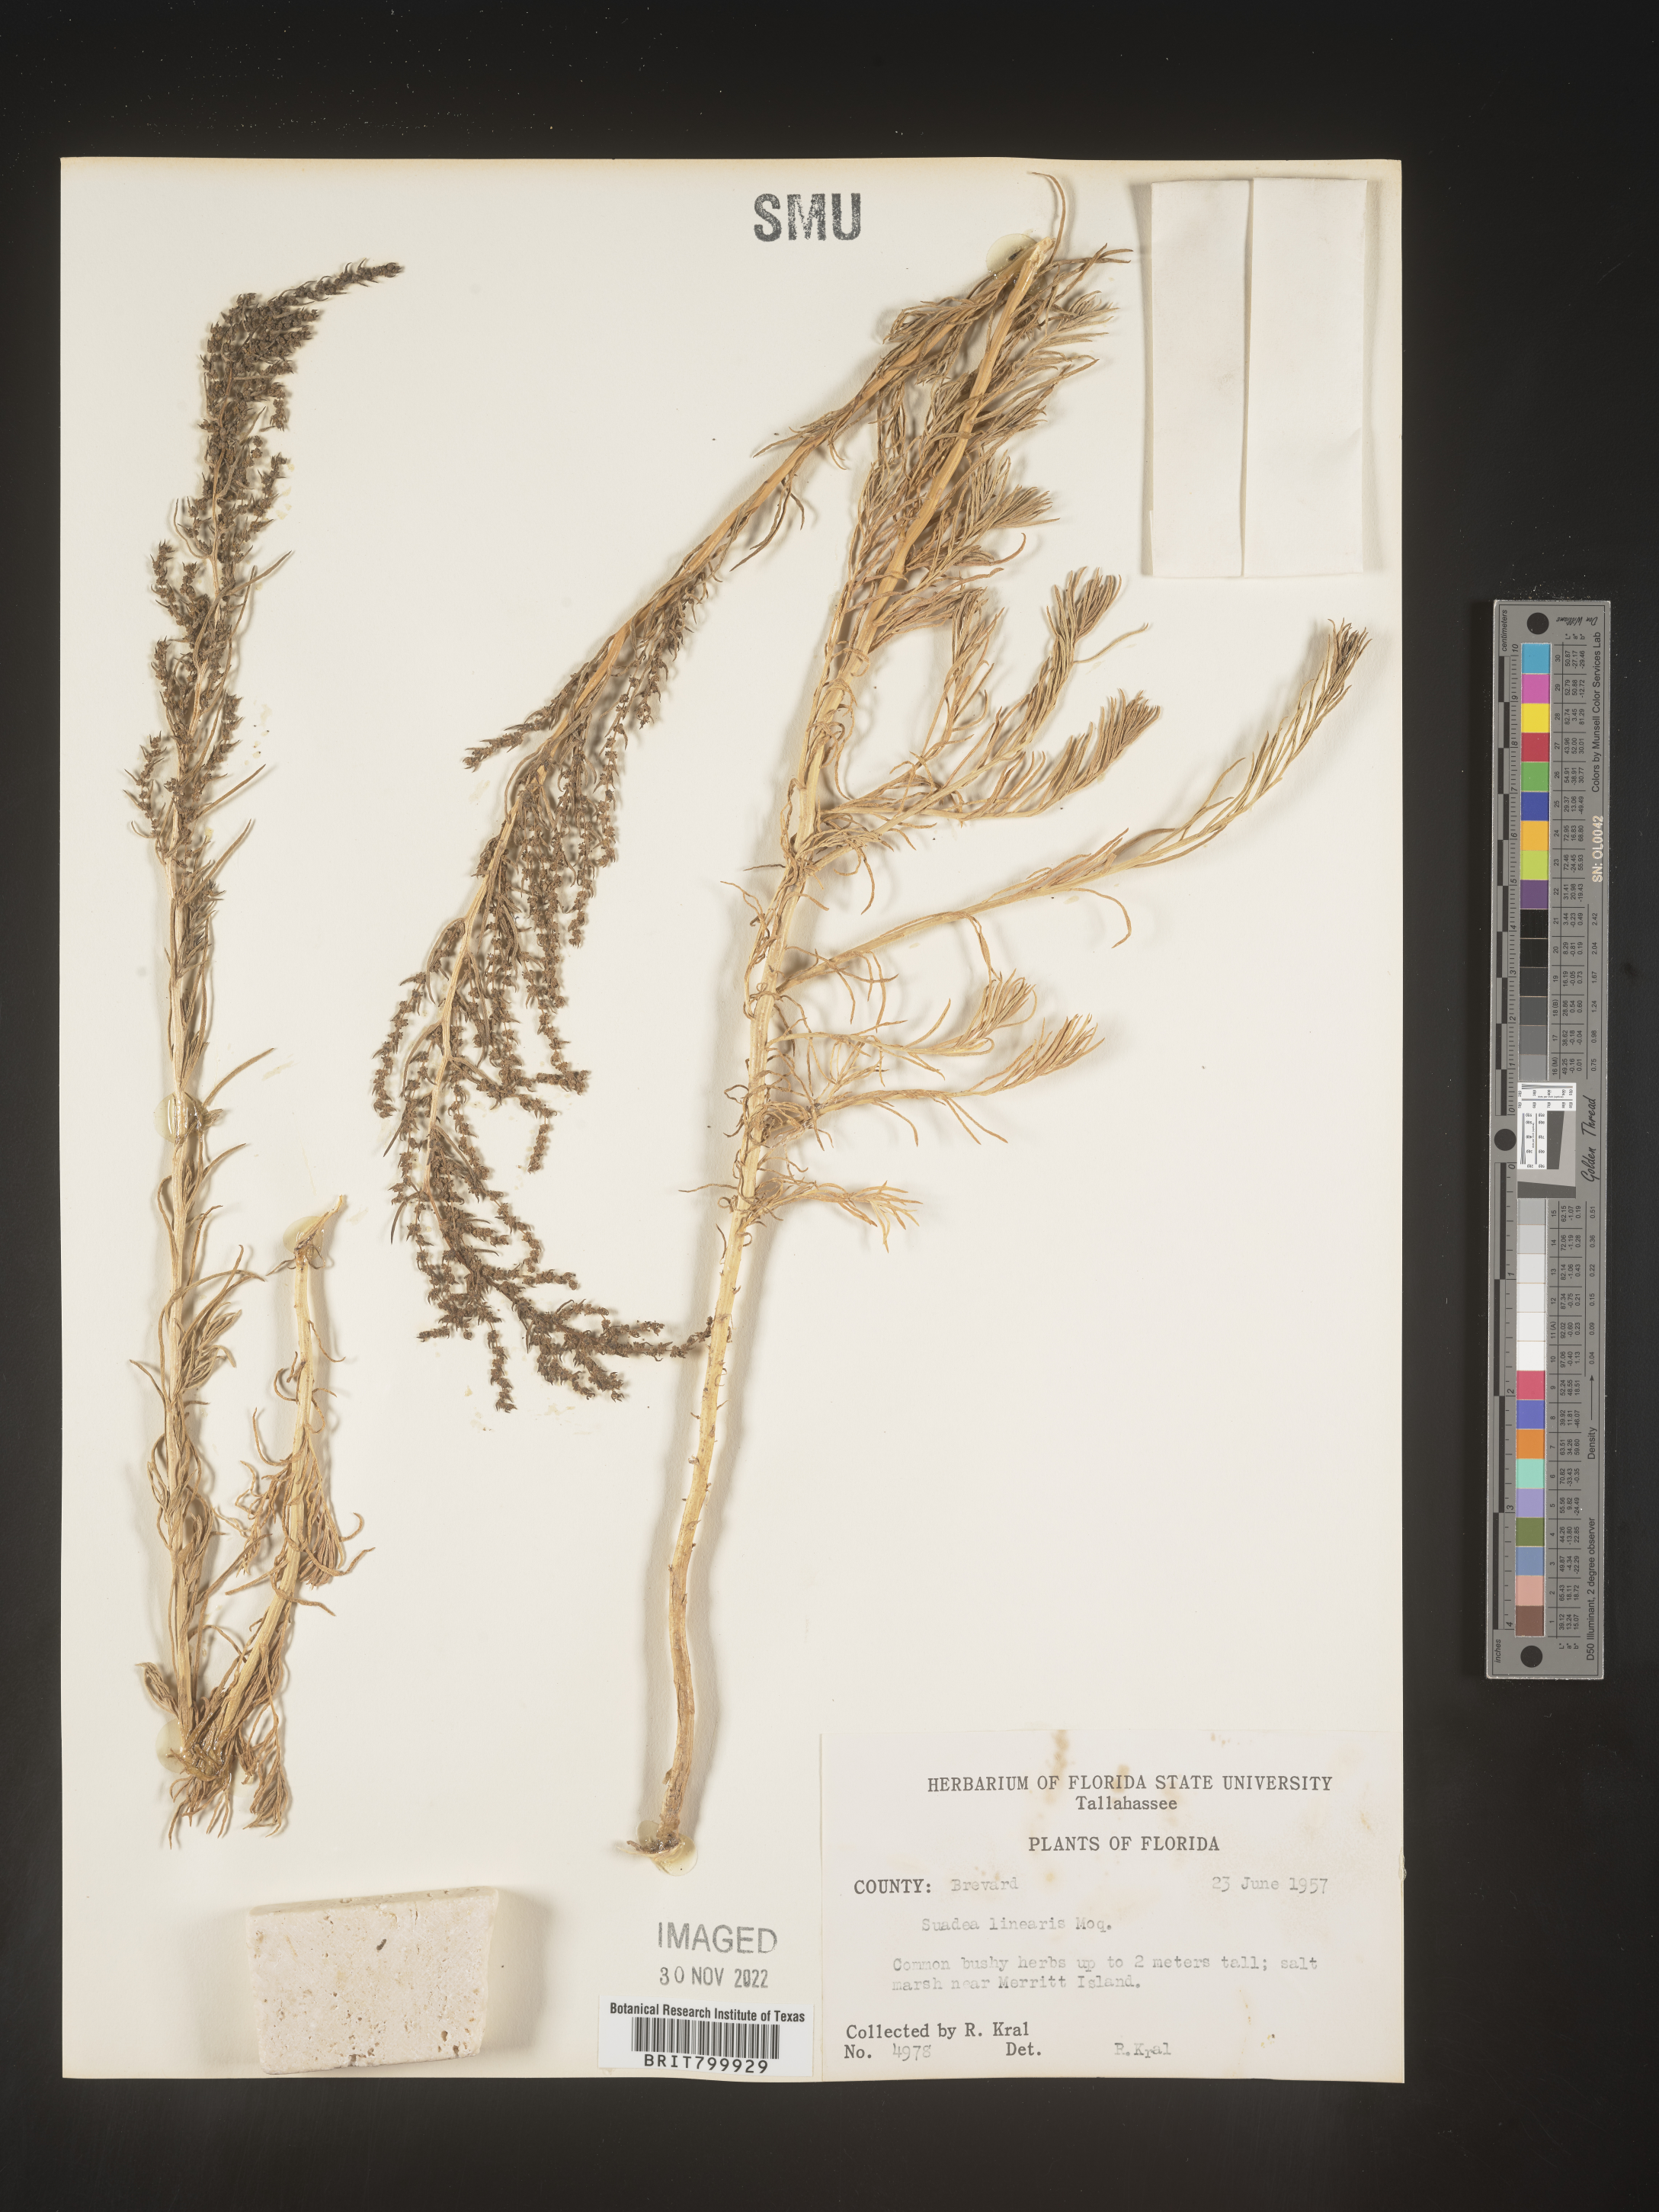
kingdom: Plantae
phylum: Tracheophyta
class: Magnoliopsida
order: Caryophyllales
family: Amaranthaceae
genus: Suaeda
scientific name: Suaeda linearis
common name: Annual seepweed
